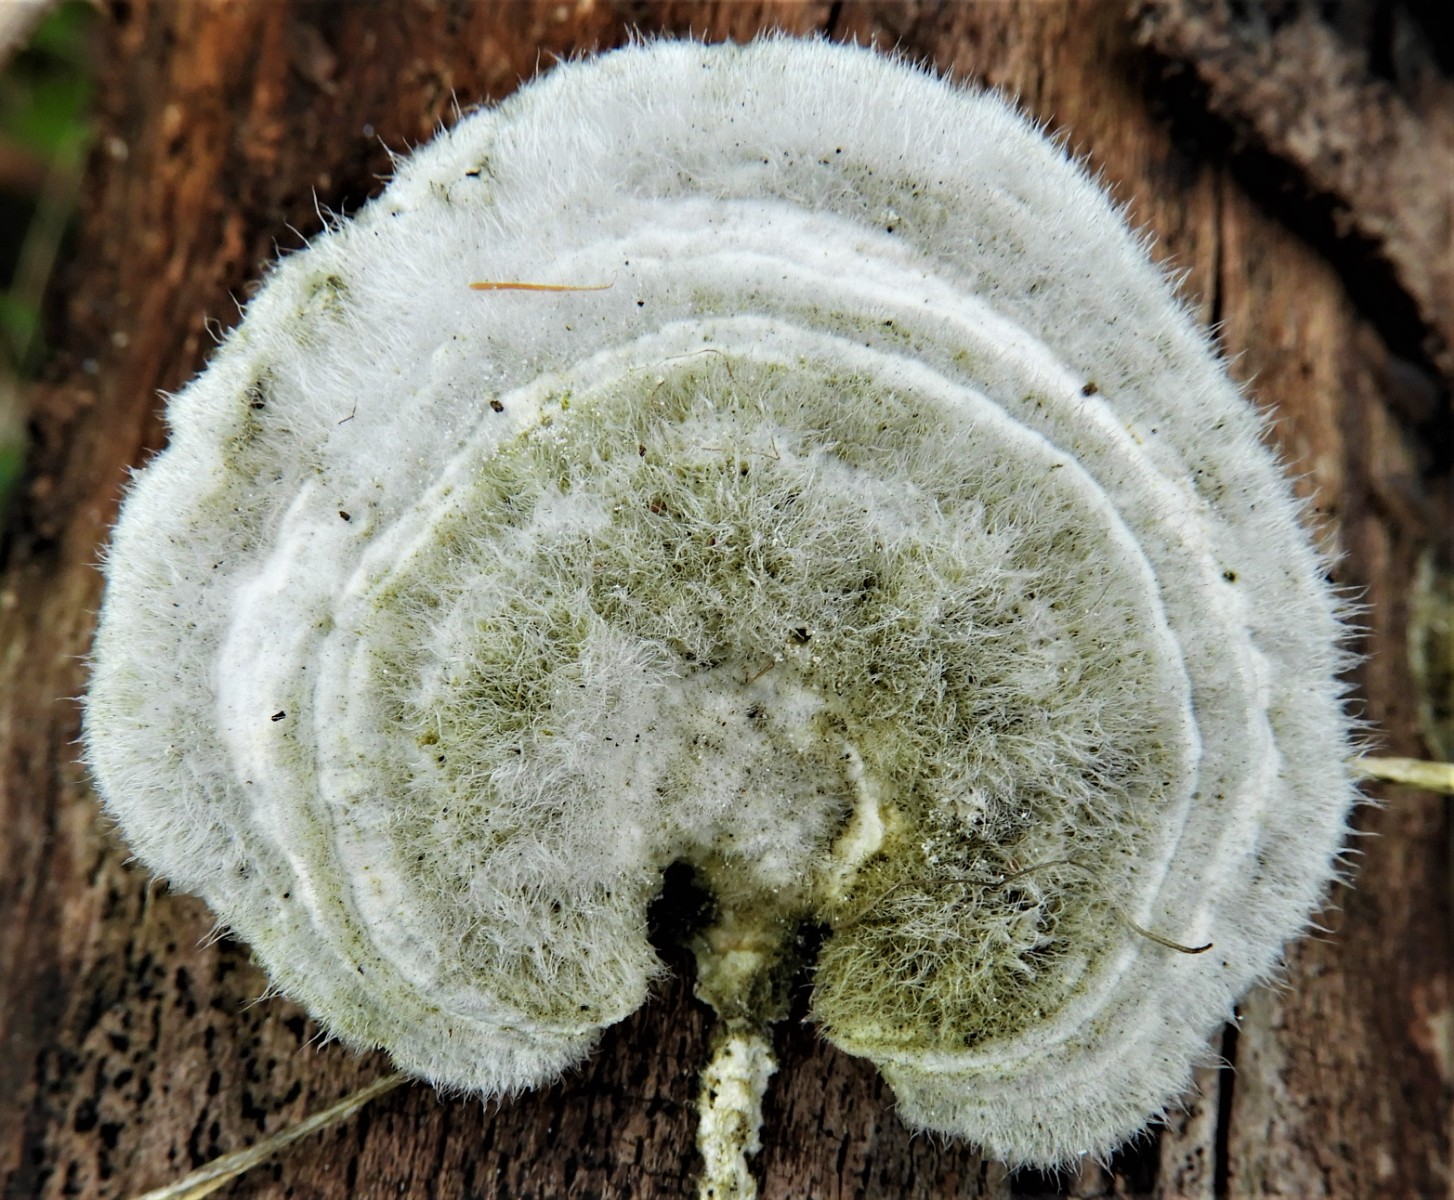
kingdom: Fungi
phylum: Basidiomycota
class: Agaricomycetes
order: Polyporales
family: Polyporaceae
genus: Trametes
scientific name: Trametes hirsuta
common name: håret læderporesvamp
